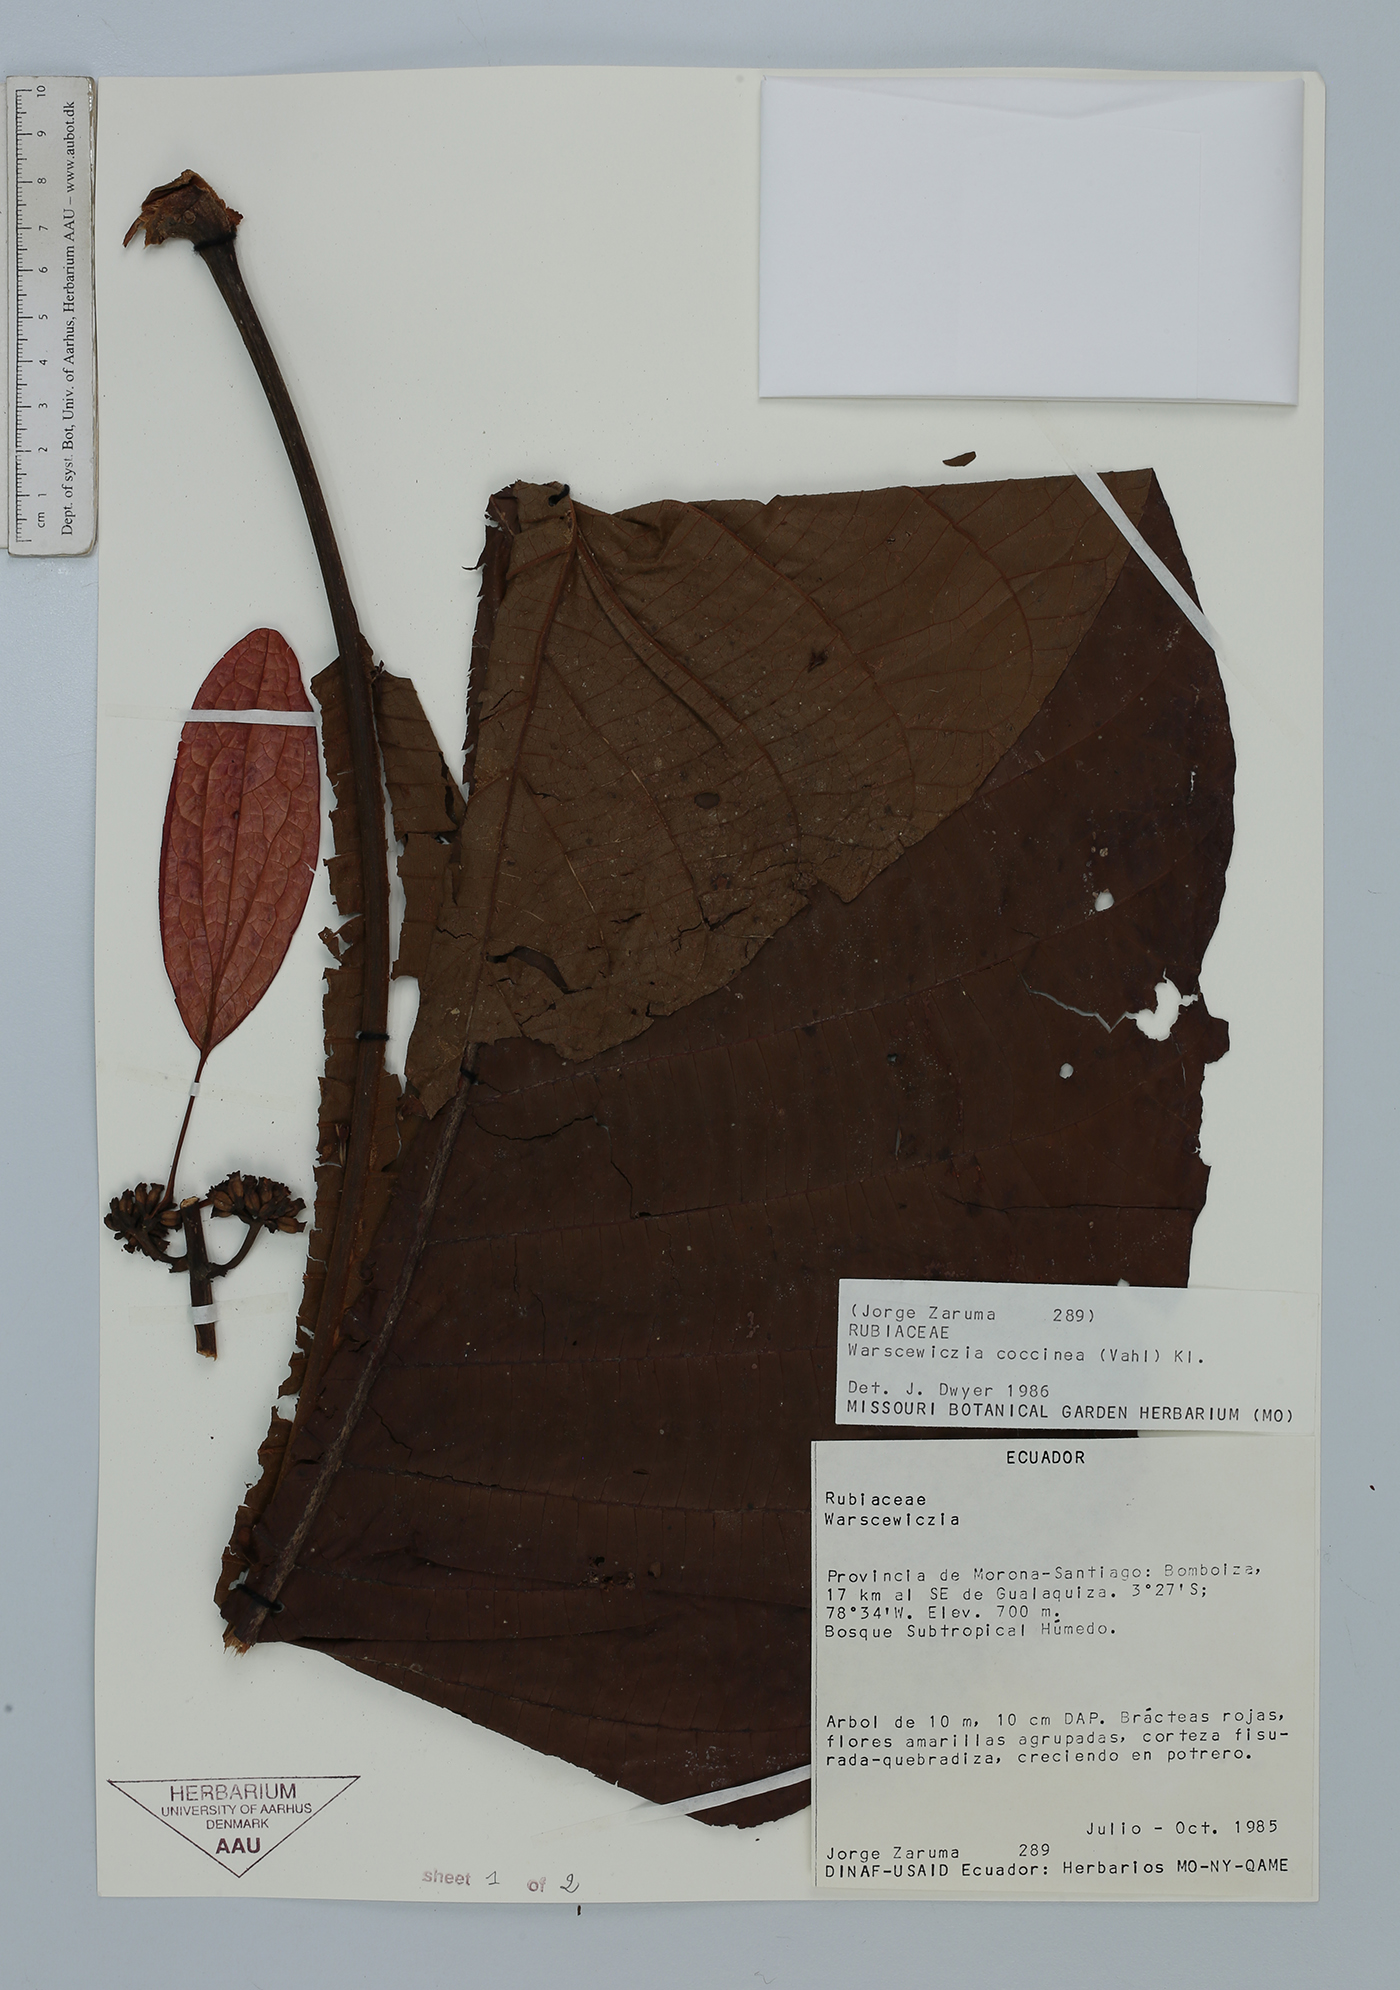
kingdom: Plantae
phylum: Tracheophyta
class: Magnoliopsida
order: Gentianales
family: Rubiaceae
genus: Warszewiczia
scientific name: Warszewiczia coccinea
